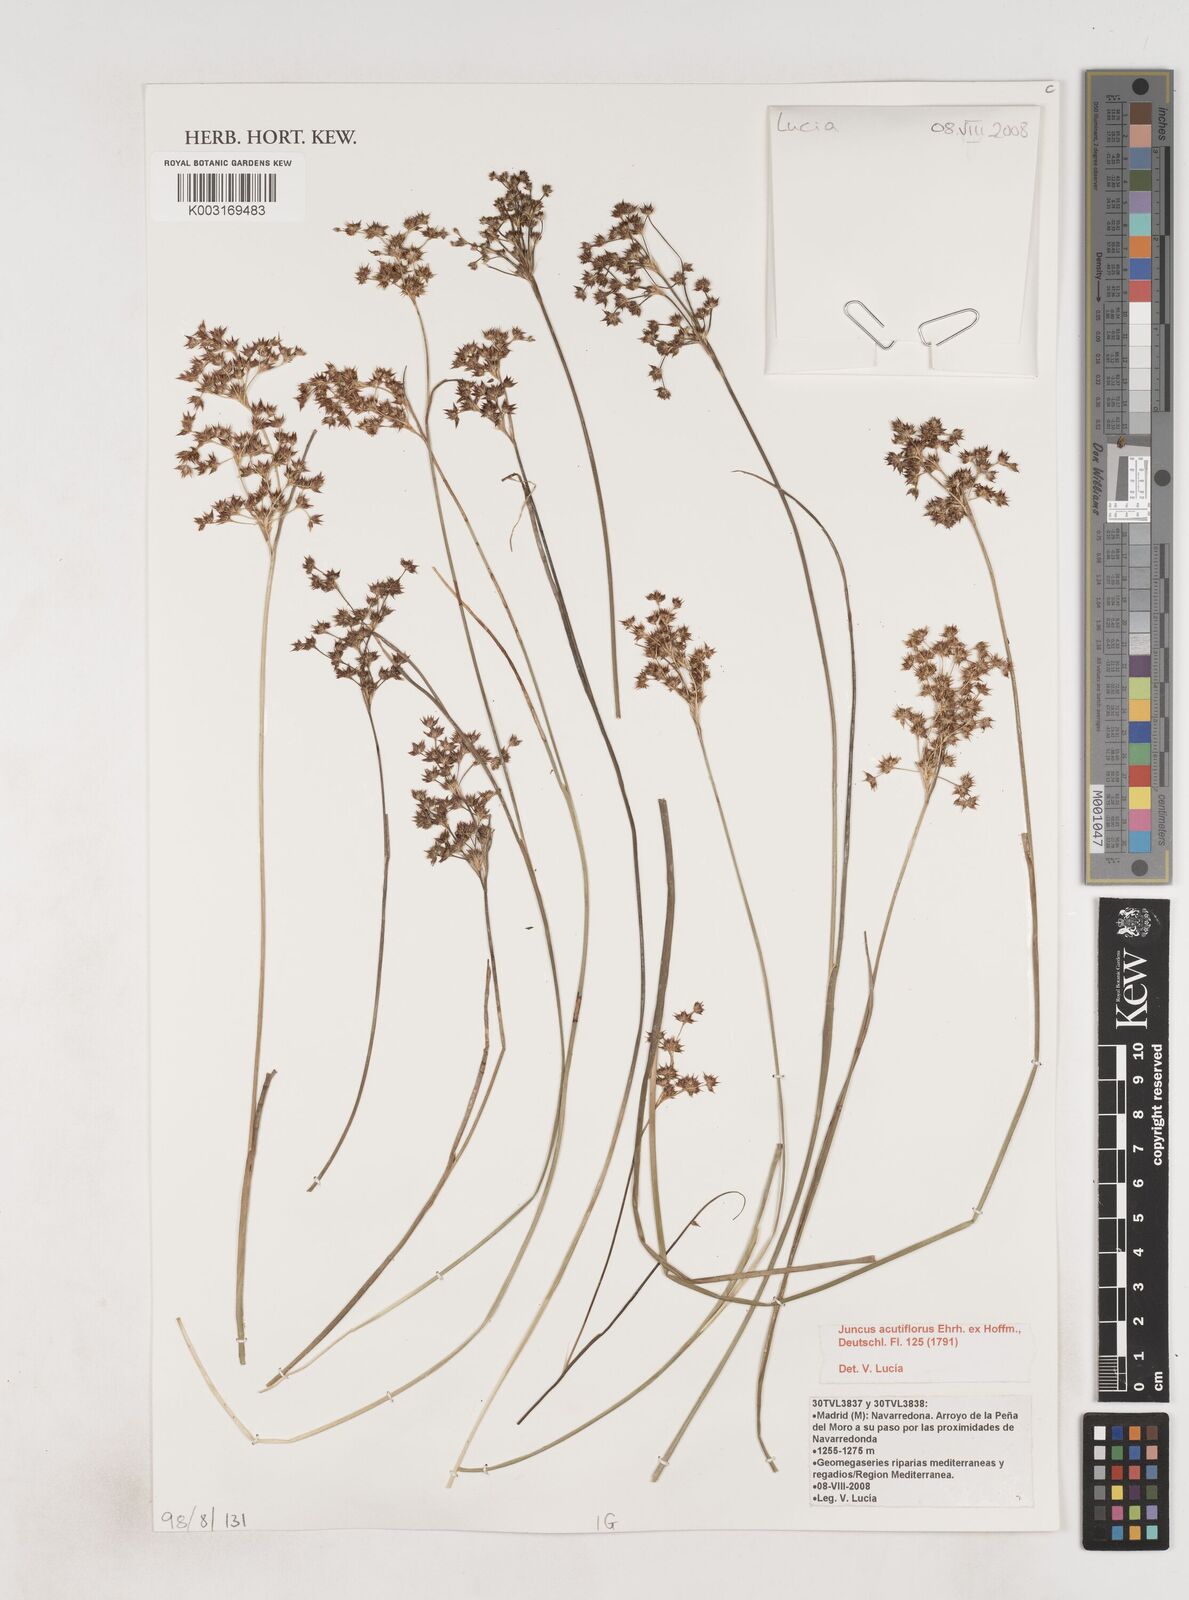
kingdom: Plantae
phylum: Tracheophyta
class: Liliopsida
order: Poales
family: Juncaceae
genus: Juncus
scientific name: Juncus acutiflorus
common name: Sharp-flowered rush
